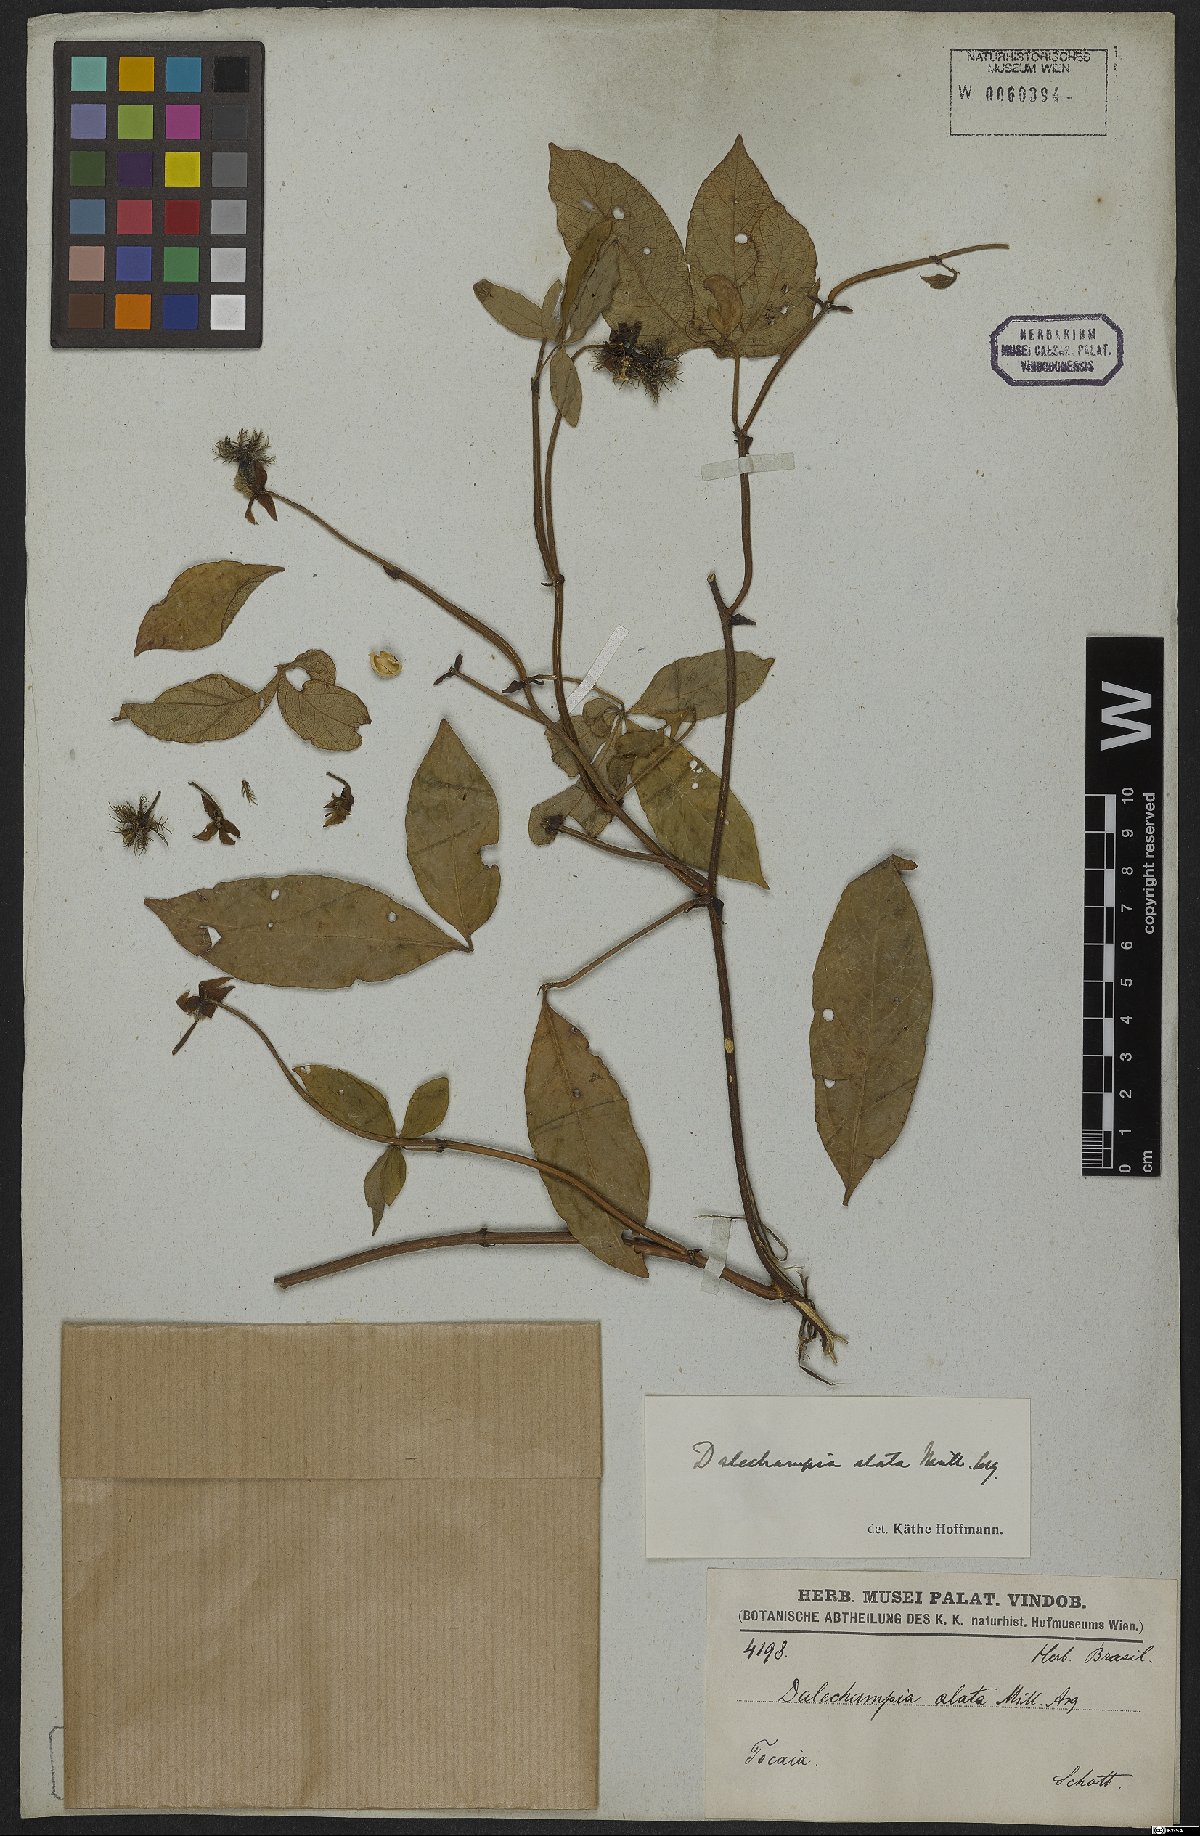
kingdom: Plantae
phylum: Tracheophyta
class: Magnoliopsida
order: Malpighiales
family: Euphorbiaceae
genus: Dalechampia
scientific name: Dalechampia alata
